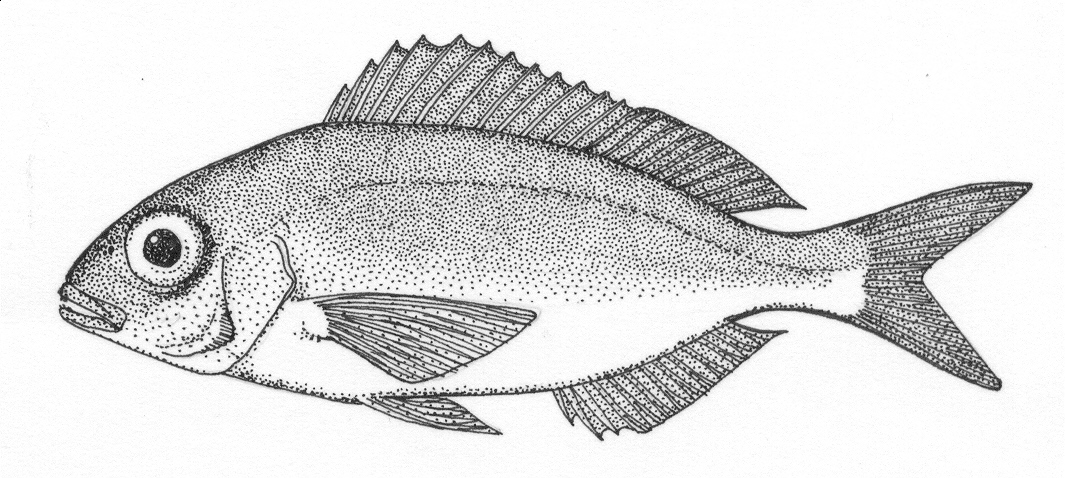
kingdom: Animalia
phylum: Chordata
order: Perciformes
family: Sparidae
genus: Pagellus
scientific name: Pagellus natalensis
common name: Natal pandora
